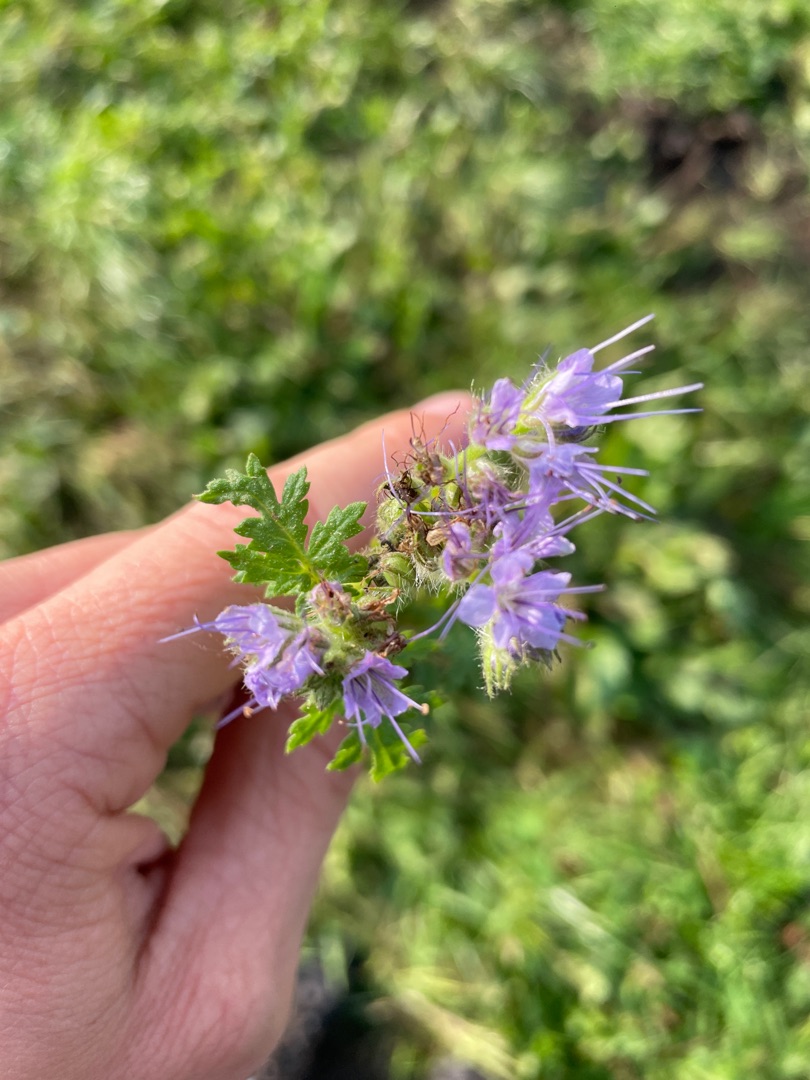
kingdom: Plantae
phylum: Tracheophyta
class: Magnoliopsida
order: Boraginales
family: Hydrophyllaceae
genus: Phacelia
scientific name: Phacelia tanacetifolia
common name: Honningurt
